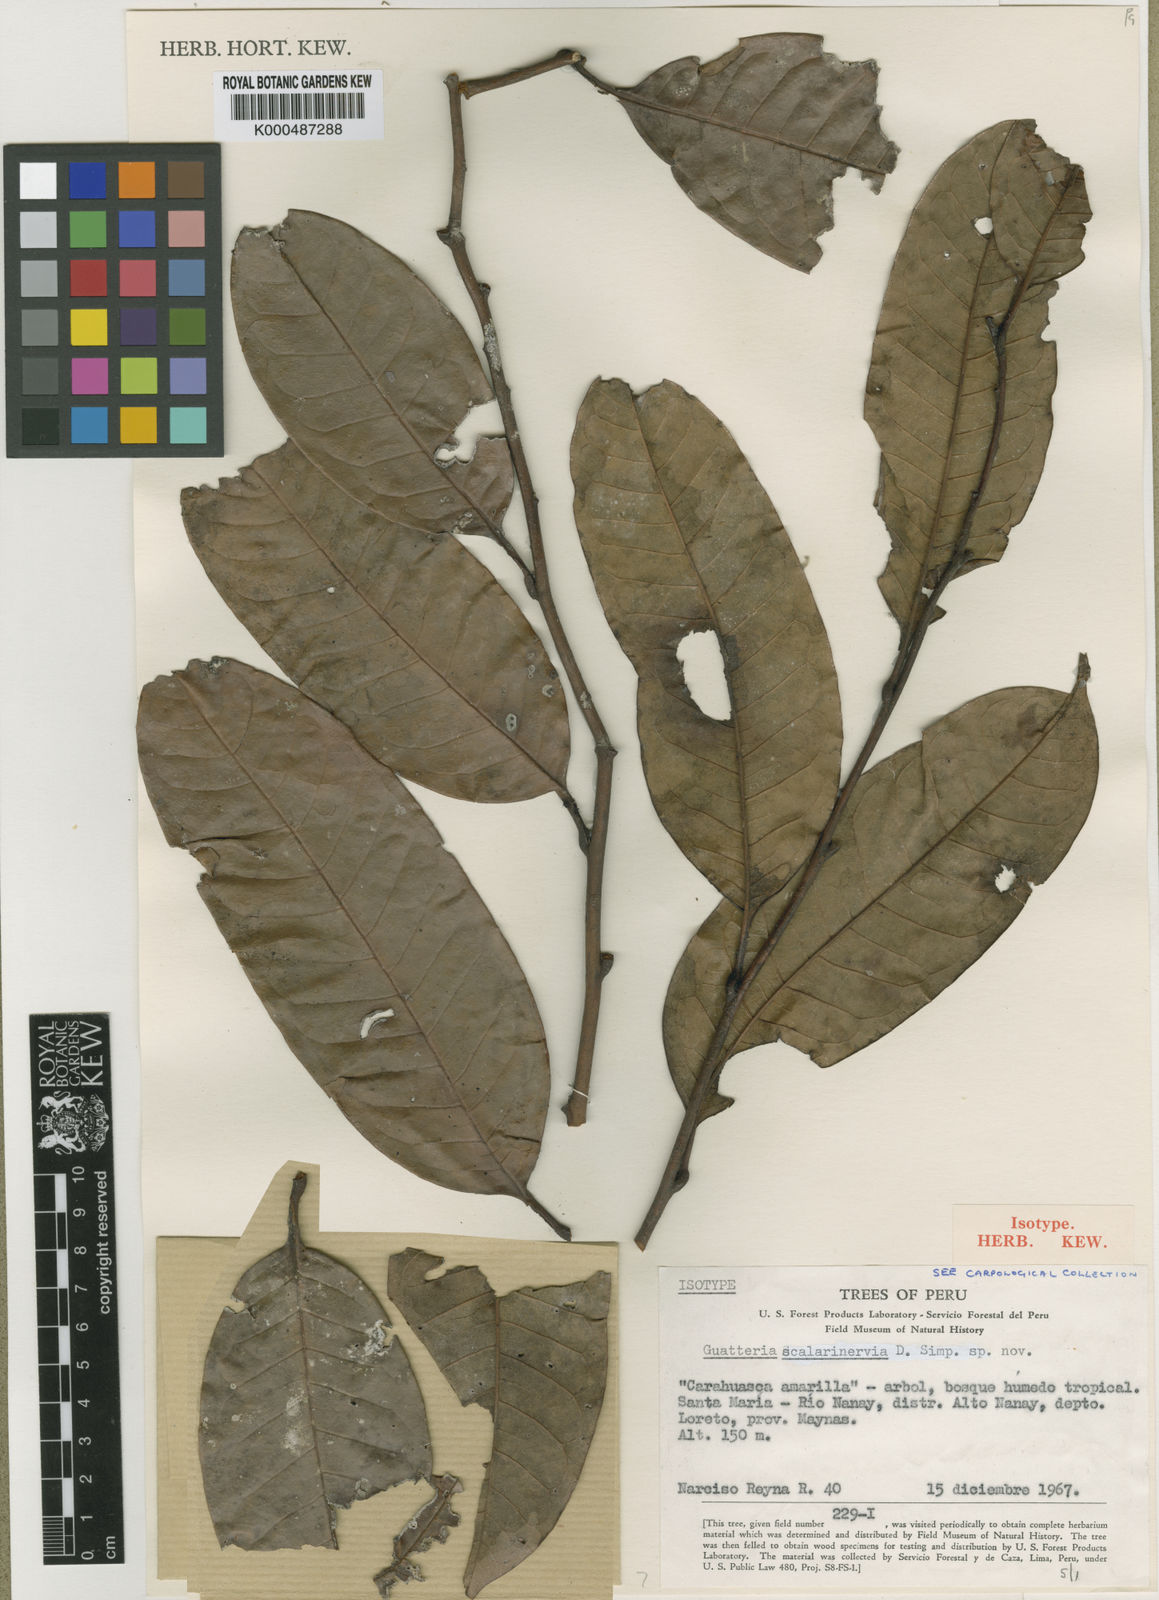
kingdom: Plantae
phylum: Tracheophyta
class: Magnoliopsida
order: Magnoliales
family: Annonaceae
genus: Guatteria
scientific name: Guatteria scalarinervia
